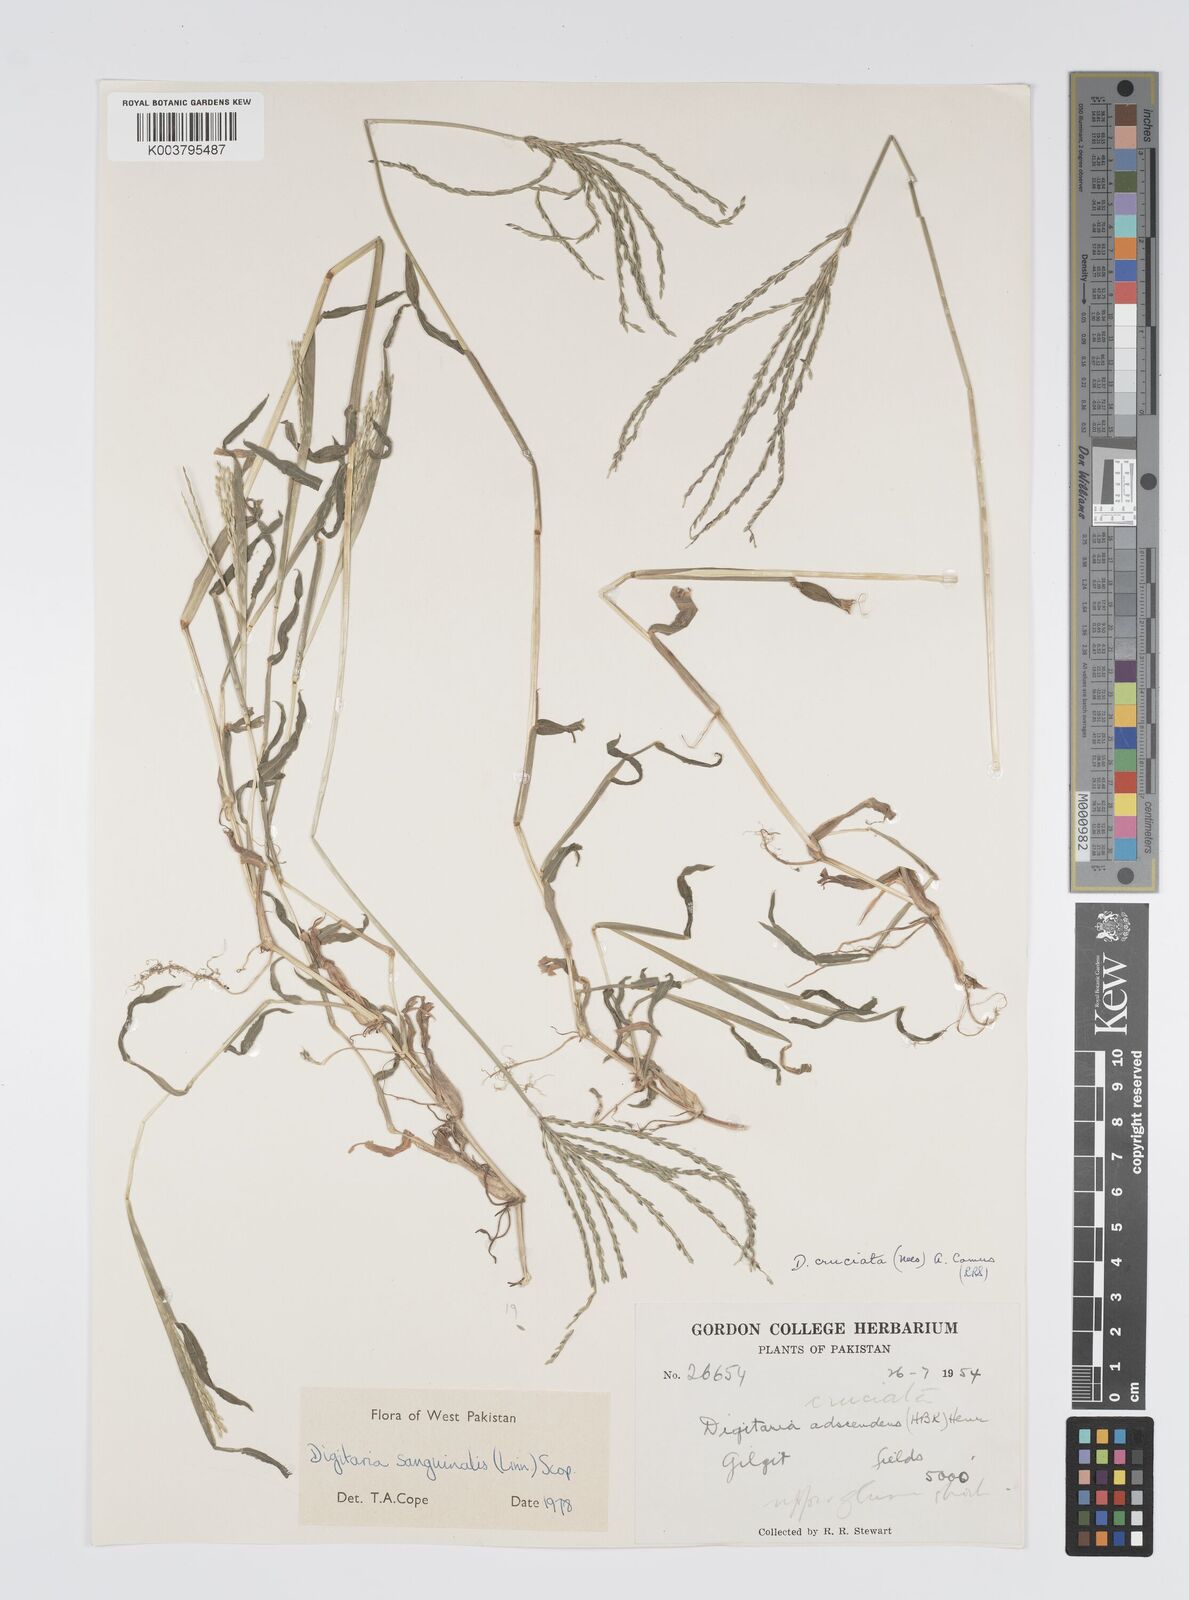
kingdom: Plantae
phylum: Tracheophyta
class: Liliopsida
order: Poales
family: Poaceae
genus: Digitaria
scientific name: Digitaria sanguinalis
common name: Hairy crabgrass
